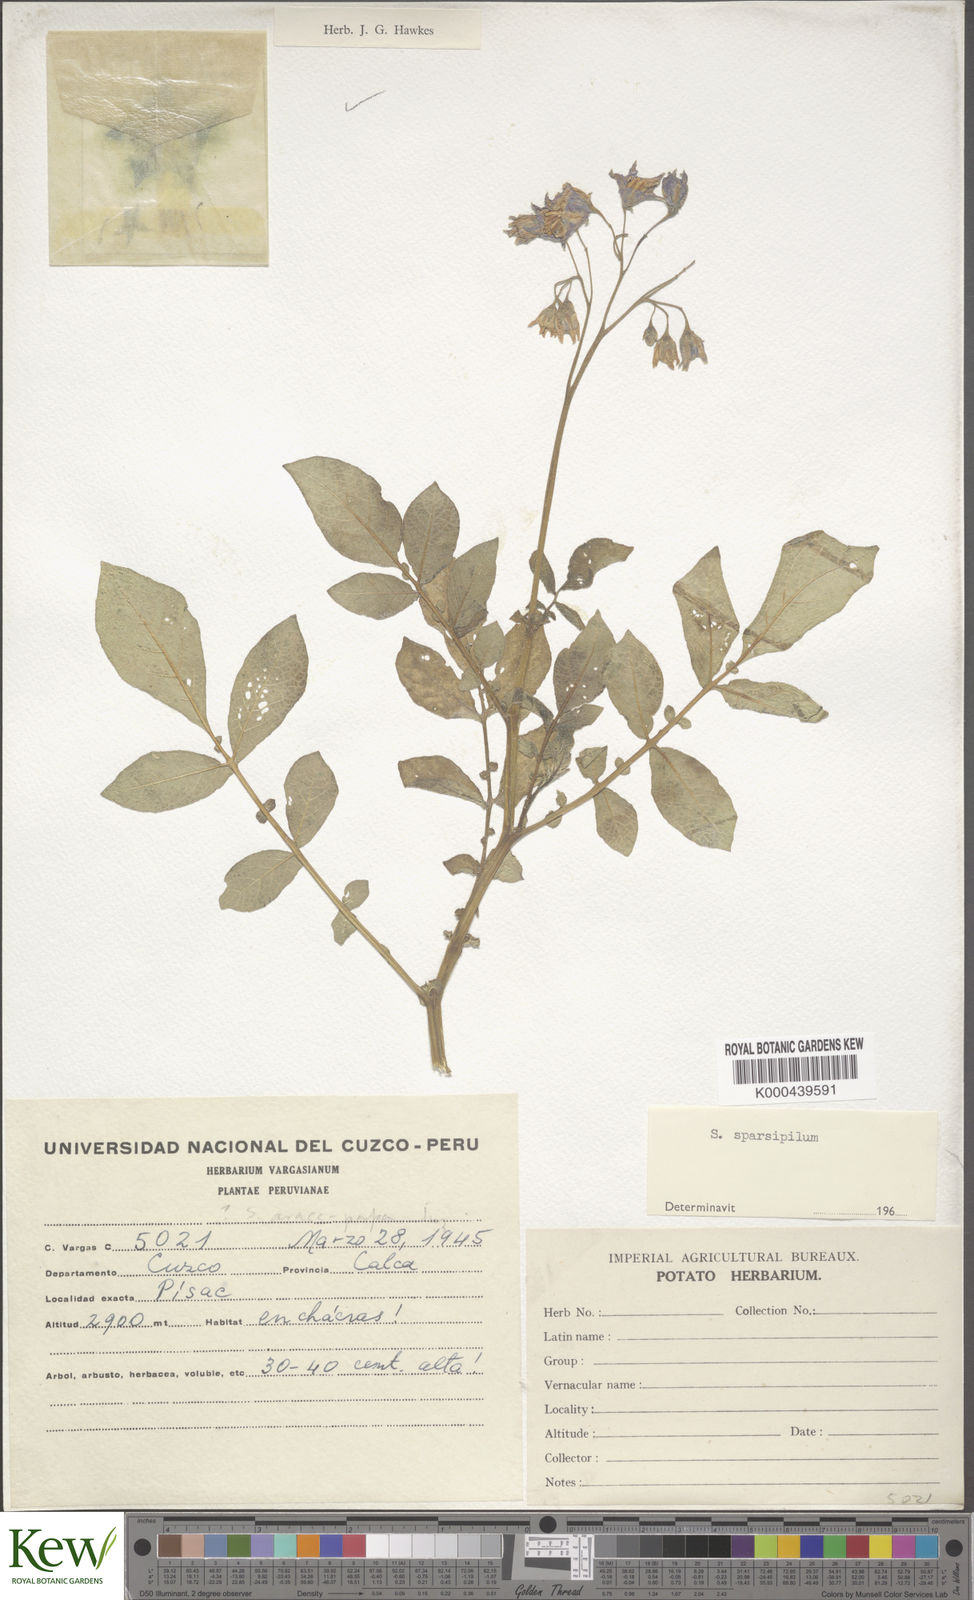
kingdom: Plantae
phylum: Tracheophyta
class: Magnoliopsida
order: Solanales
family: Solanaceae
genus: Solanum
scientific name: Solanum brevicaule
